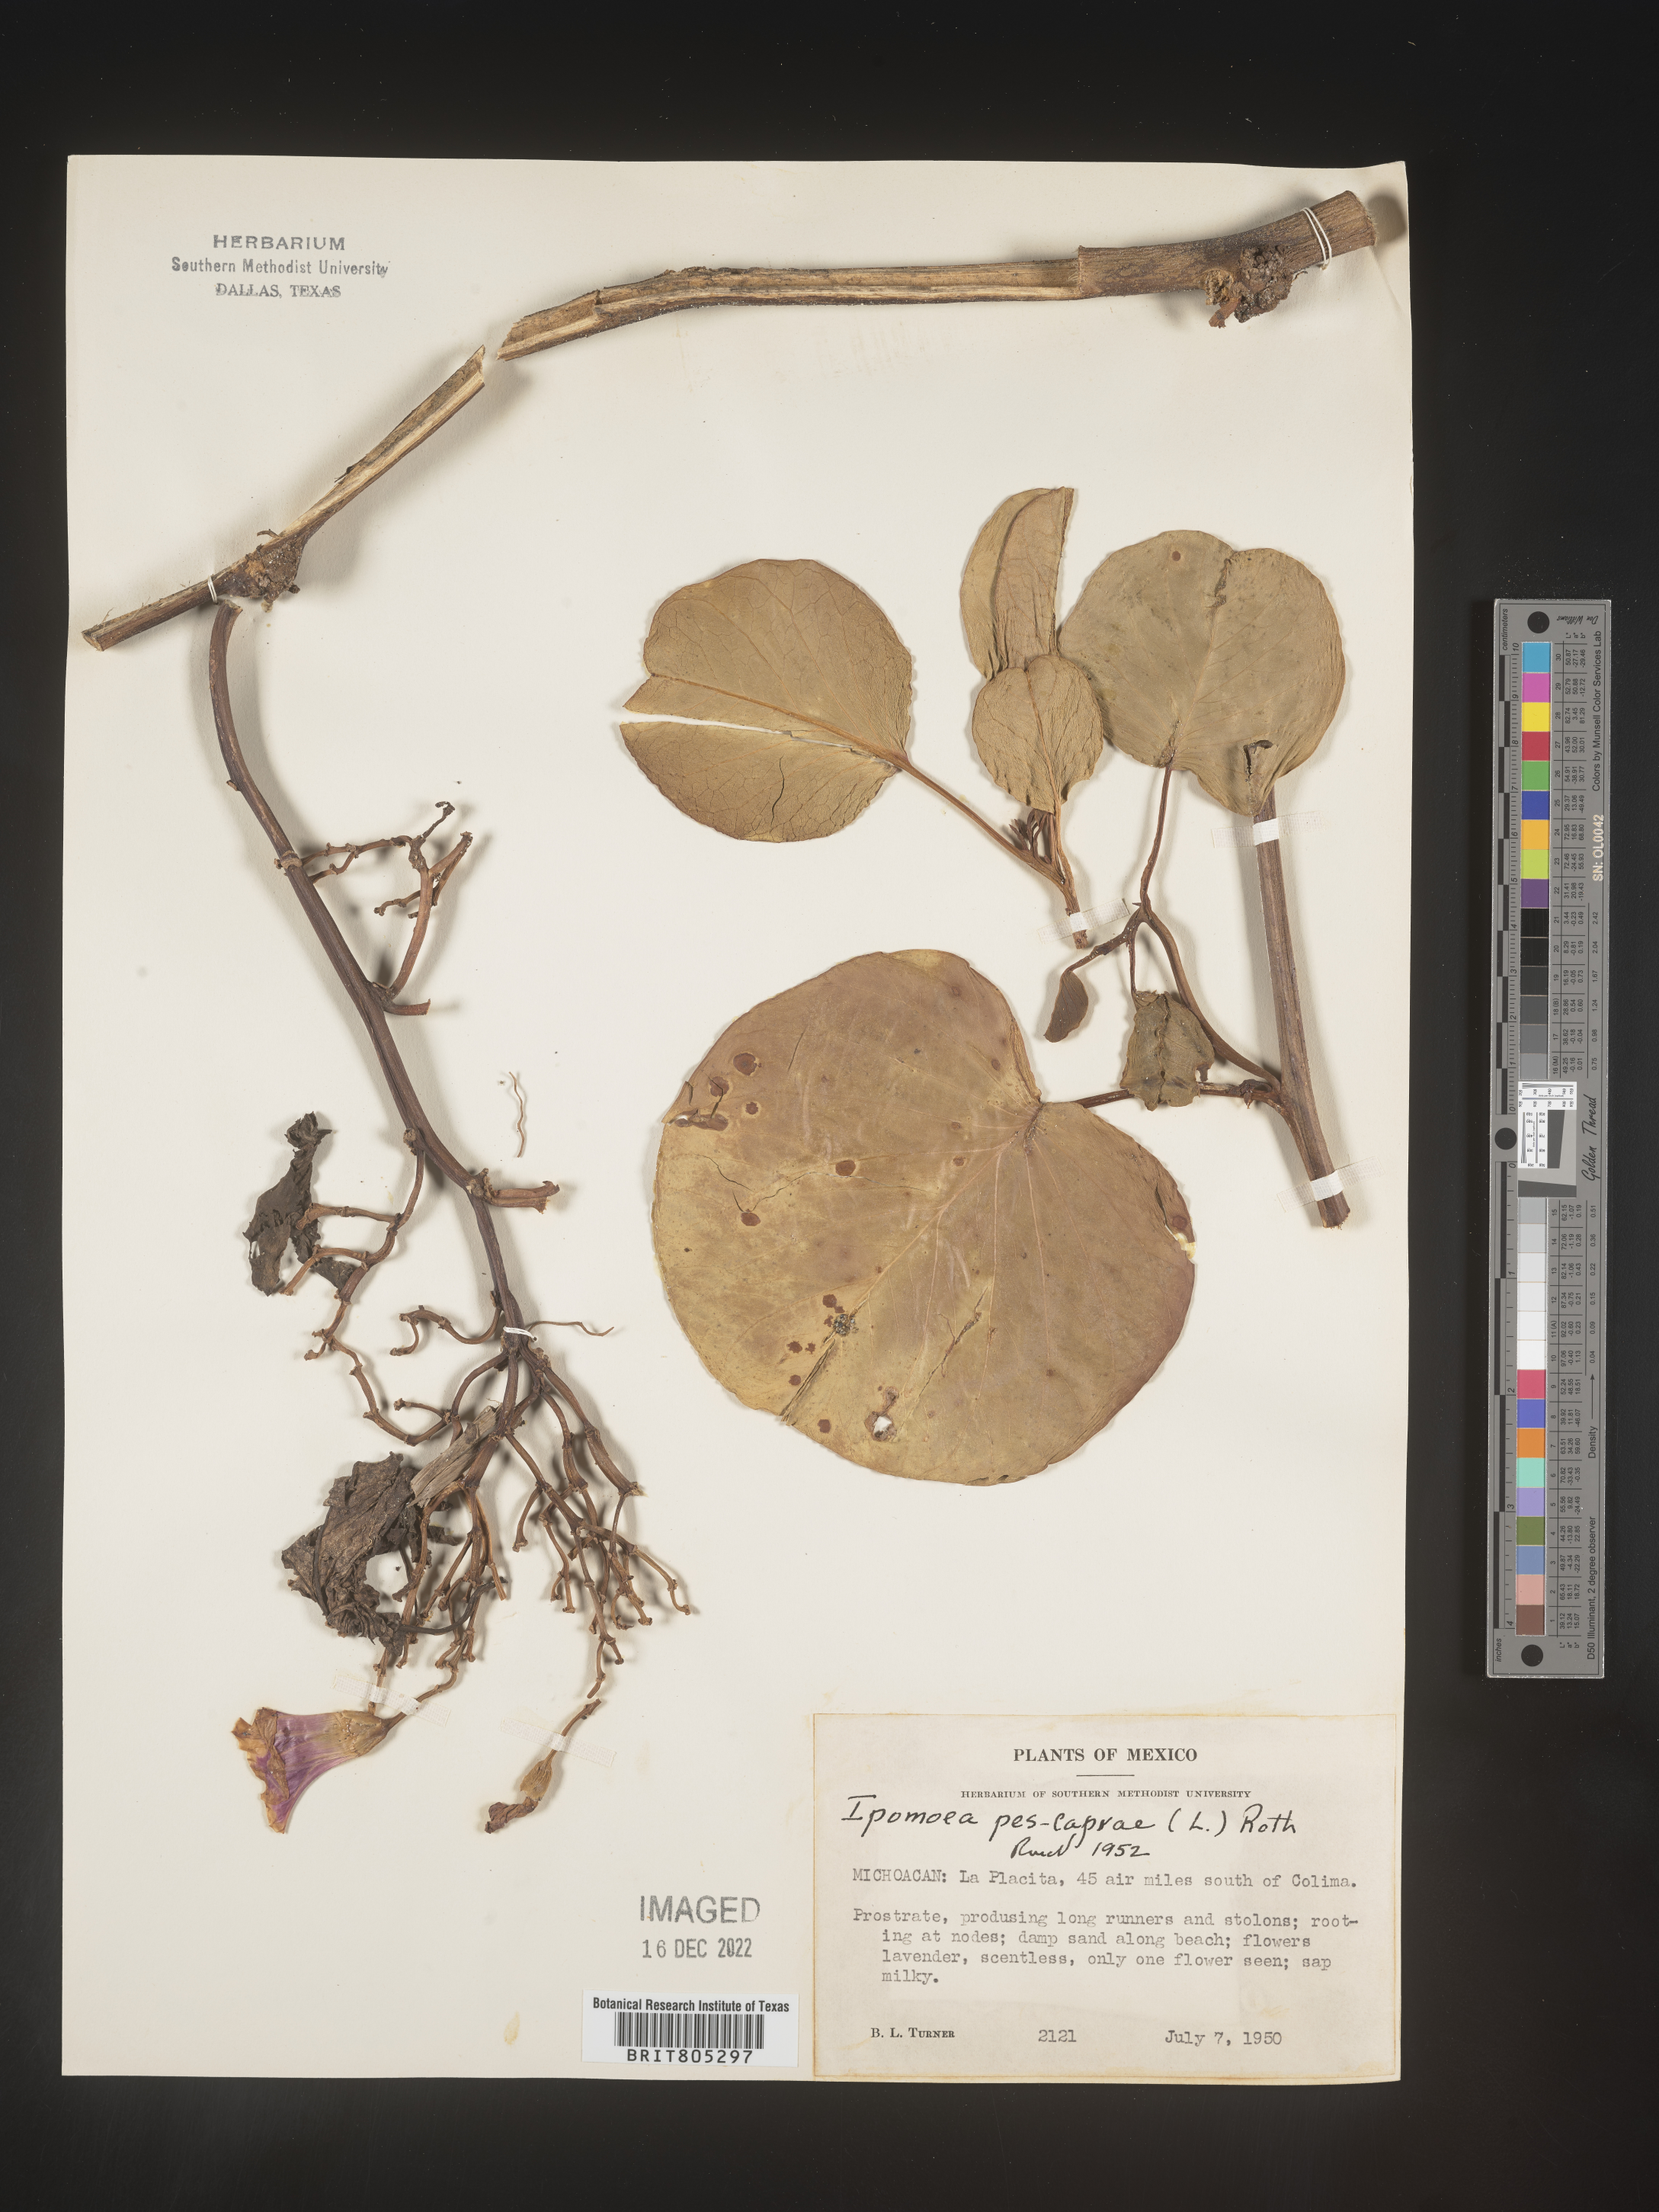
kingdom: Plantae
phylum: Tracheophyta
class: Magnoliopsida
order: Solanales
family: Convolvulaceae
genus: Ipomoea
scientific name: Ipomoea
